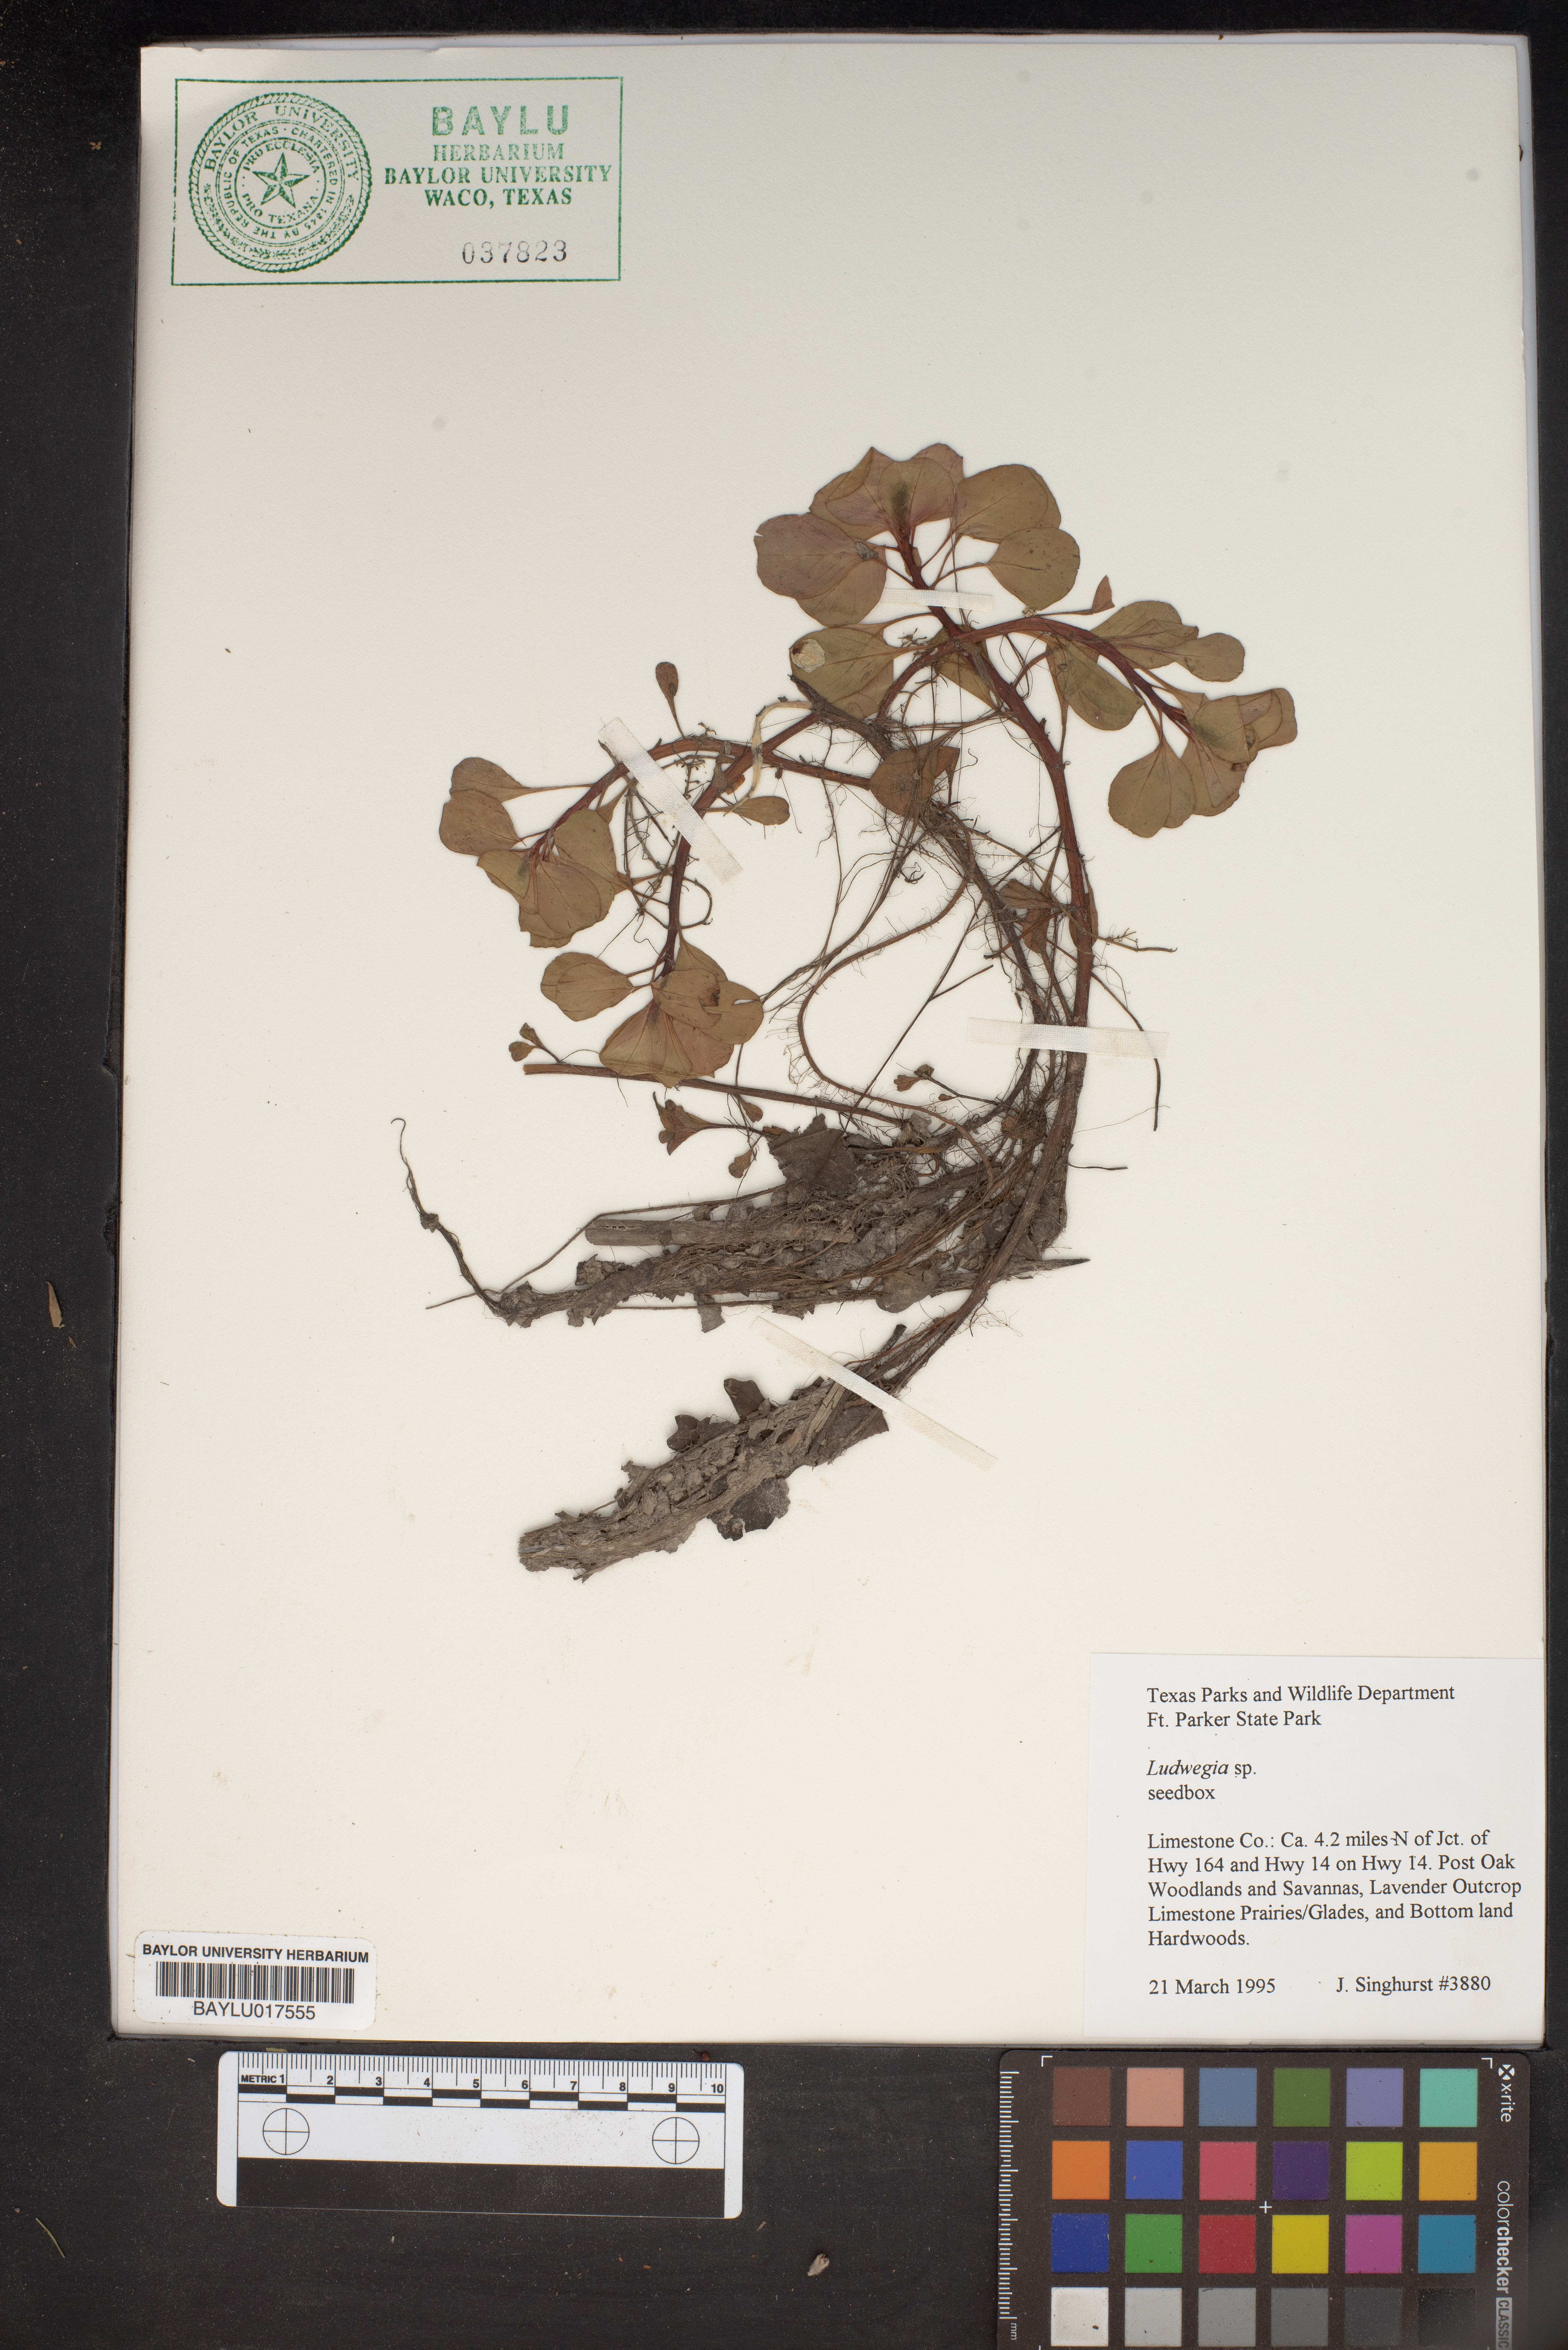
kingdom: Plantae
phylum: Tracheophyta
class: Magnoliopsida
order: Myrtales
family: Onagraceae
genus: Ludwigia
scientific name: Ludwigia
